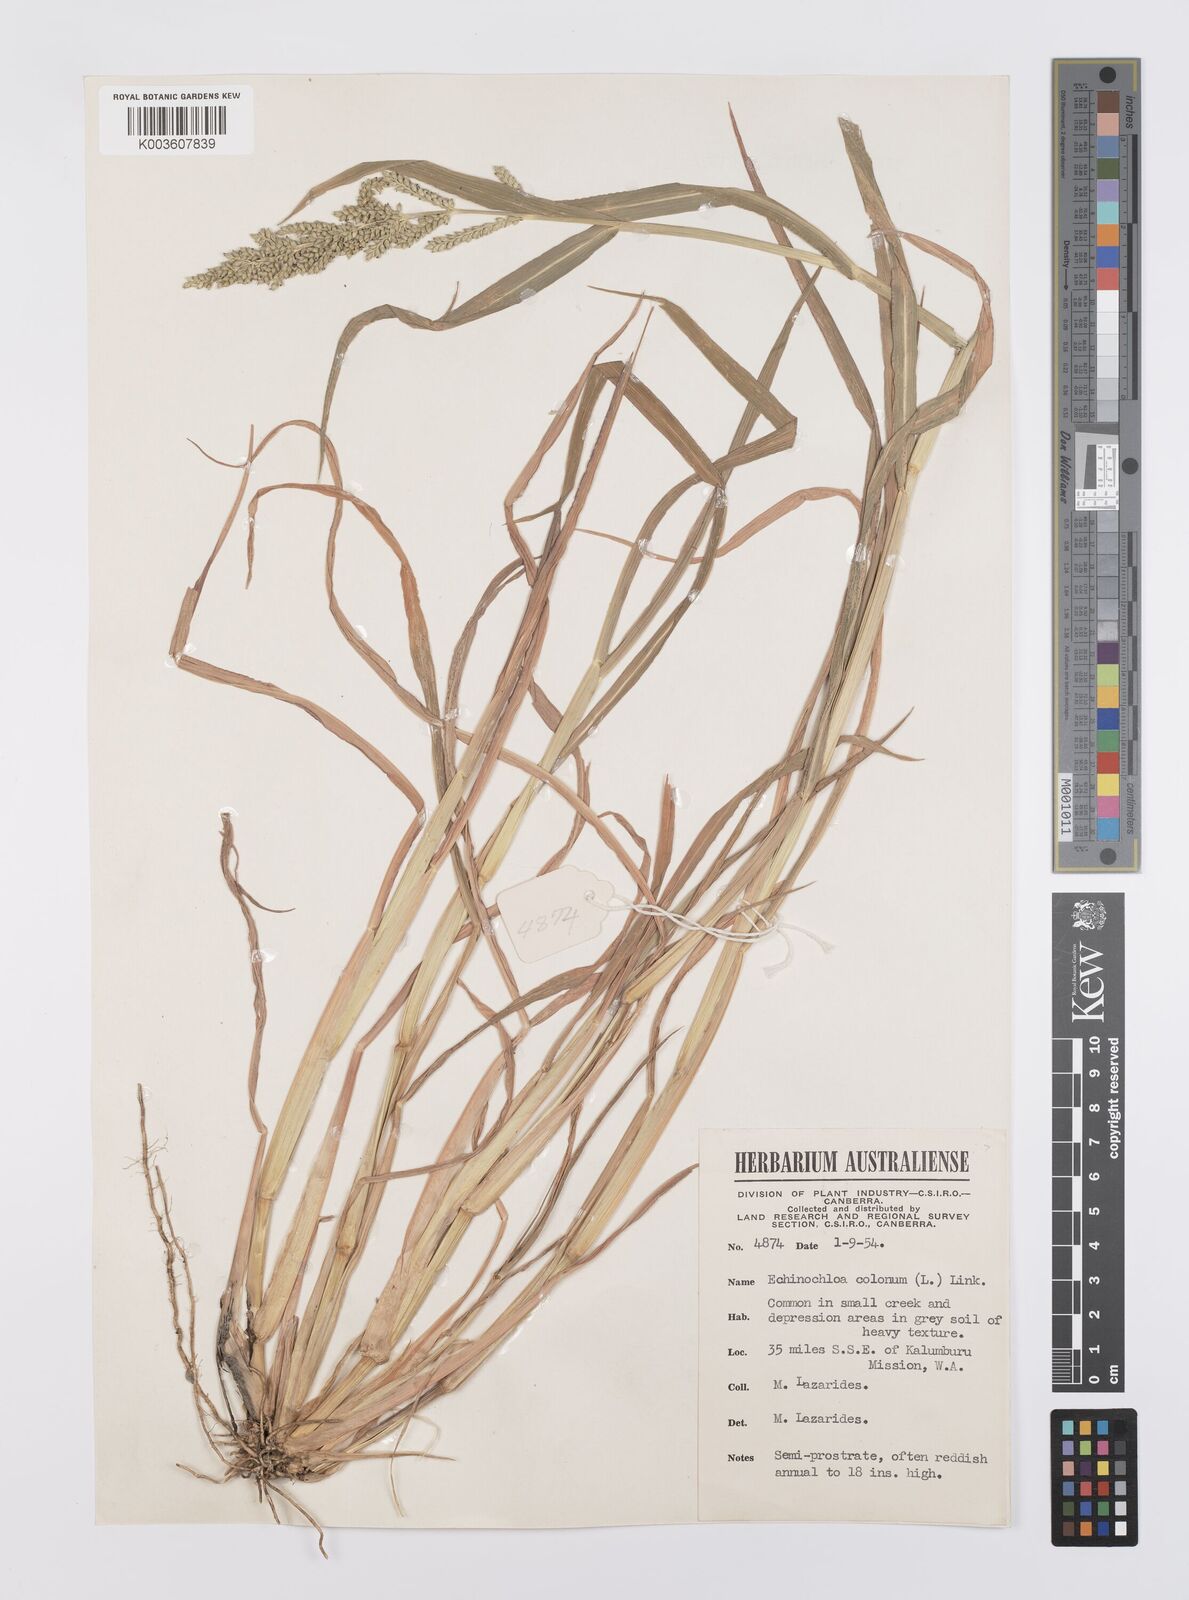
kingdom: Plantae
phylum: Tracheophyta
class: Liliopsida
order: Poales
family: Poaceae
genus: Echinochloa
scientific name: Echinochloa colonum
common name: Jungle rice
